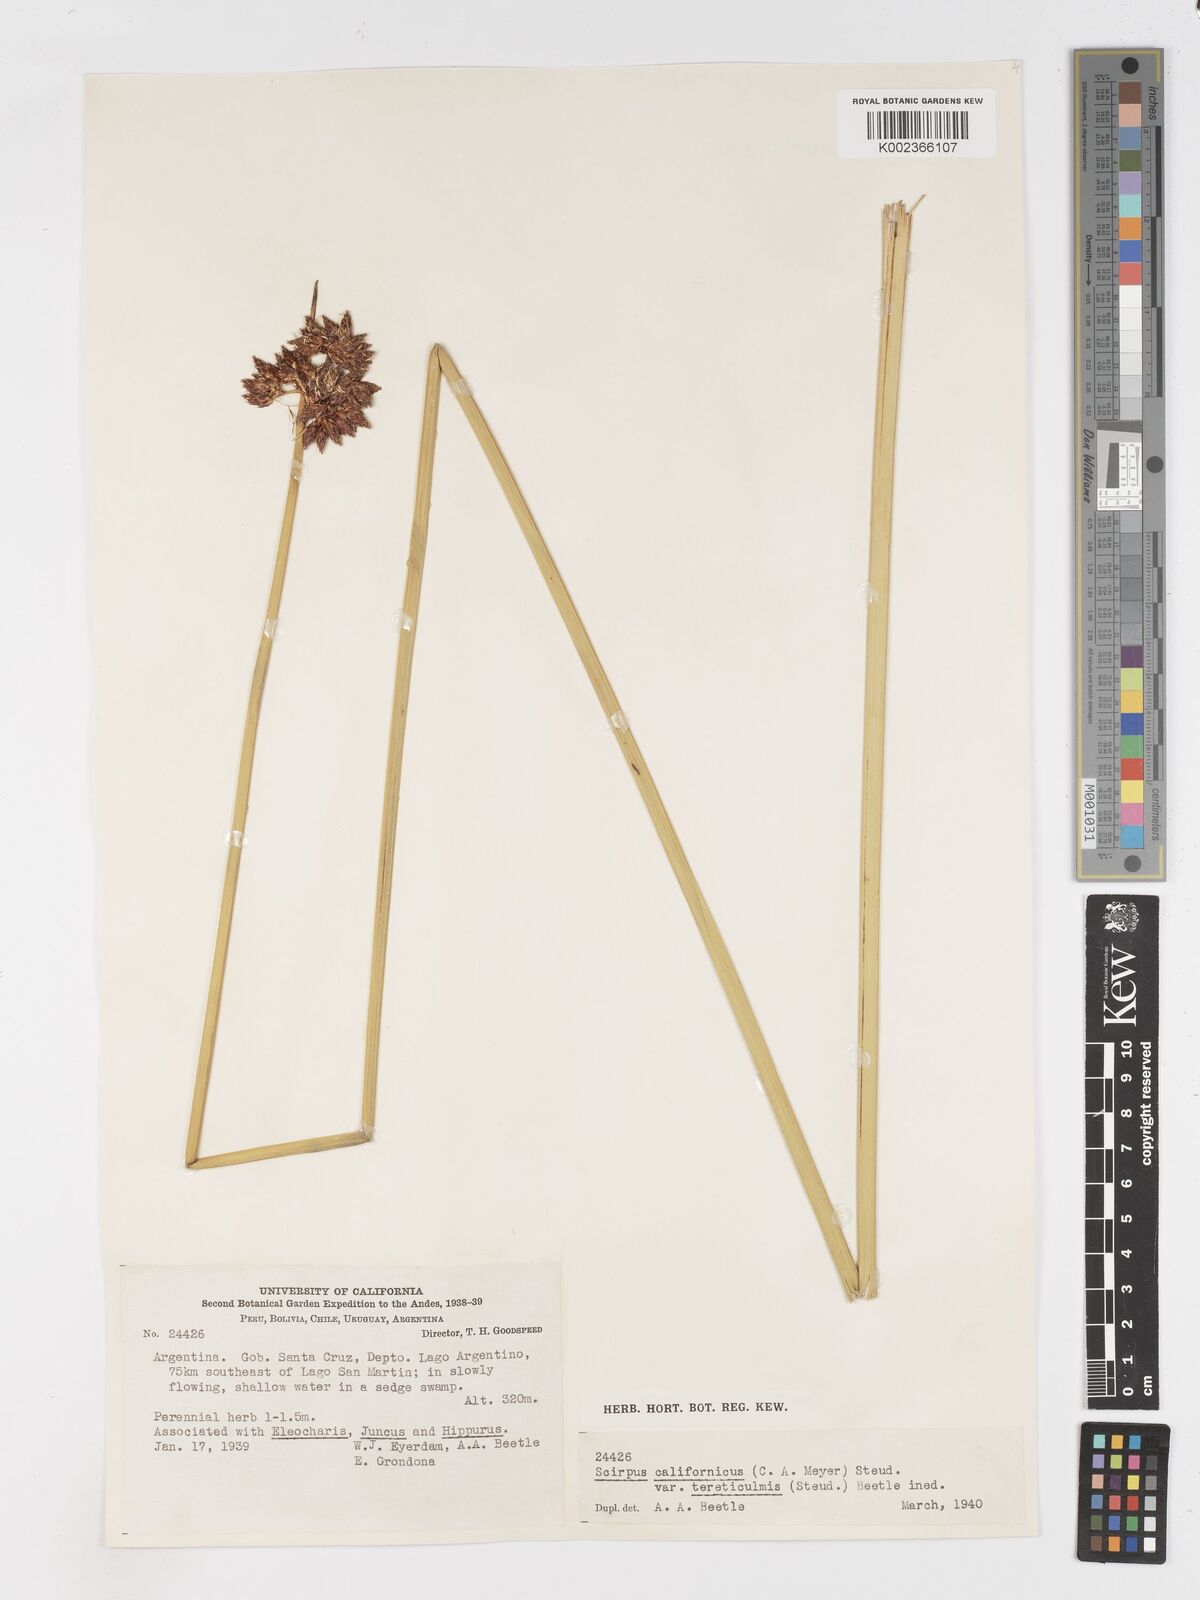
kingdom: Plantae
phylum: Tracheophyta
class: Liliopsida
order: Poales
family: Cyperaceae
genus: Schoenoplectus
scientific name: Schoenoplectus californicus
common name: California bulrush
